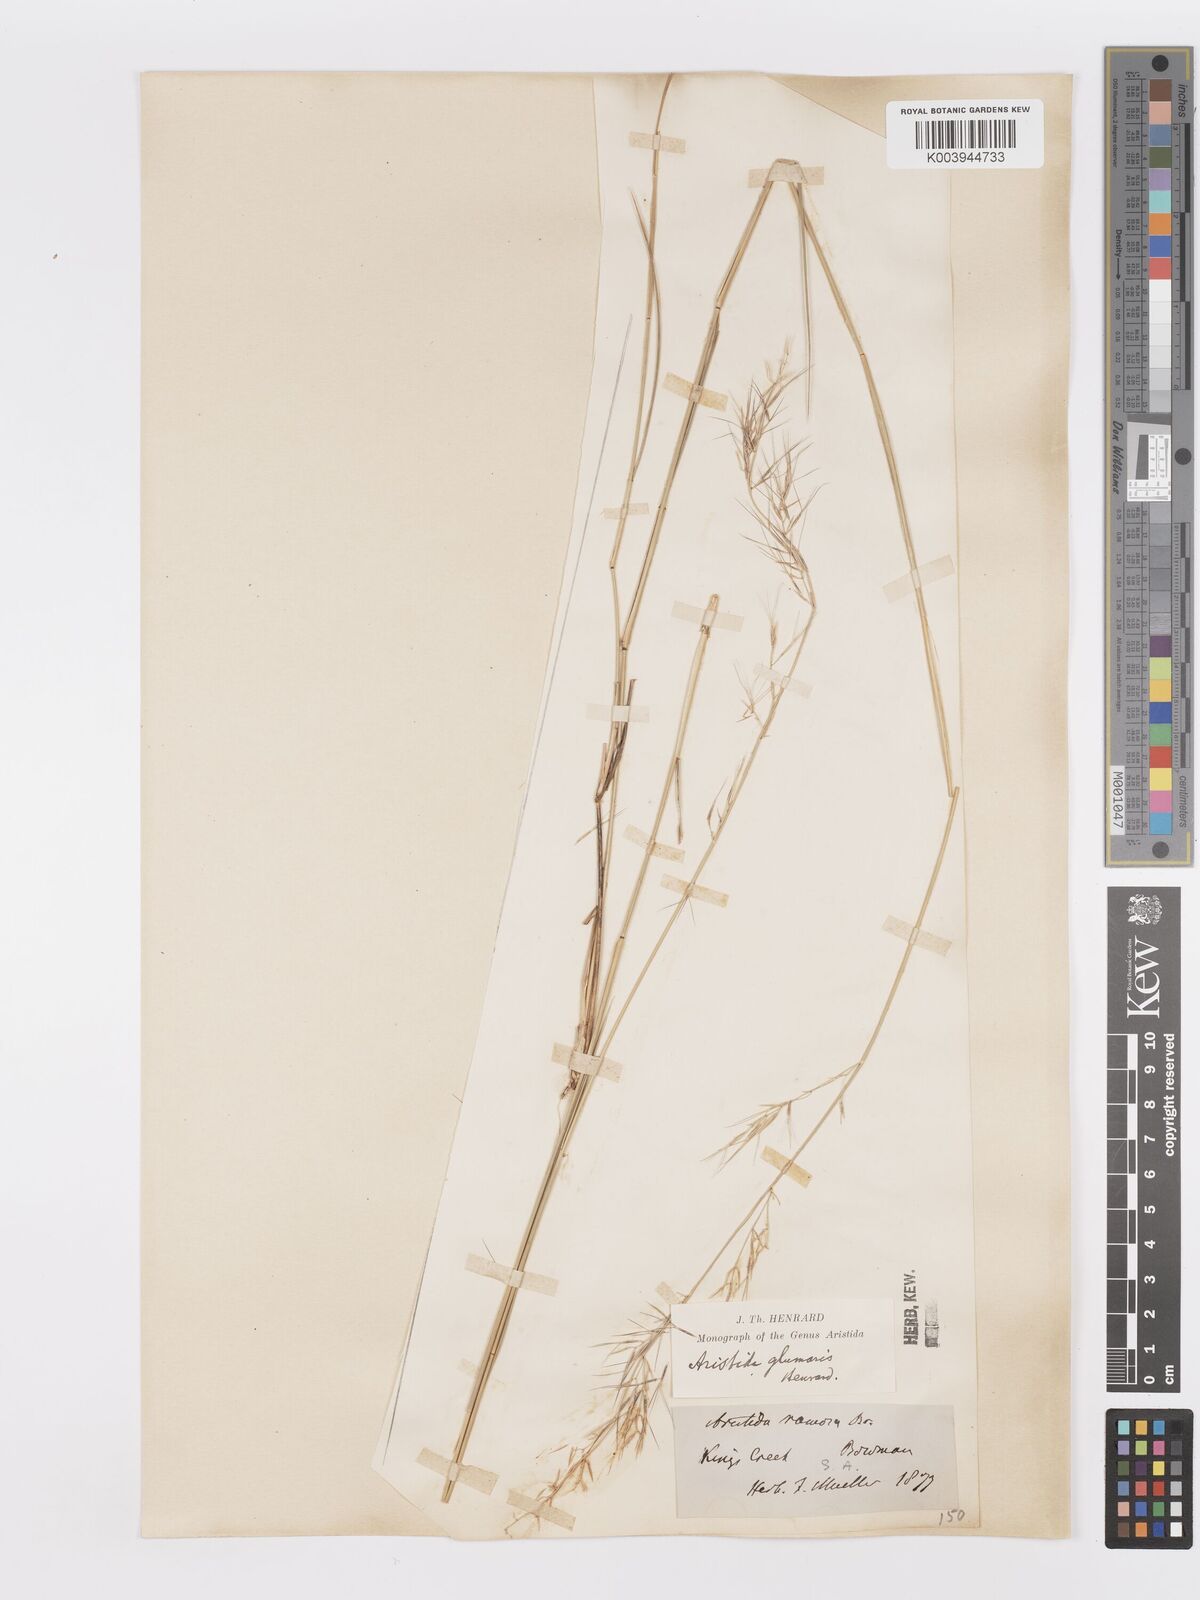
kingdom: Plantae
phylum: Tracheophyta
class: Liliopsida
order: Poales
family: Poaceae
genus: Aristida
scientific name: Aristida calycina
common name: Dark wire grass
